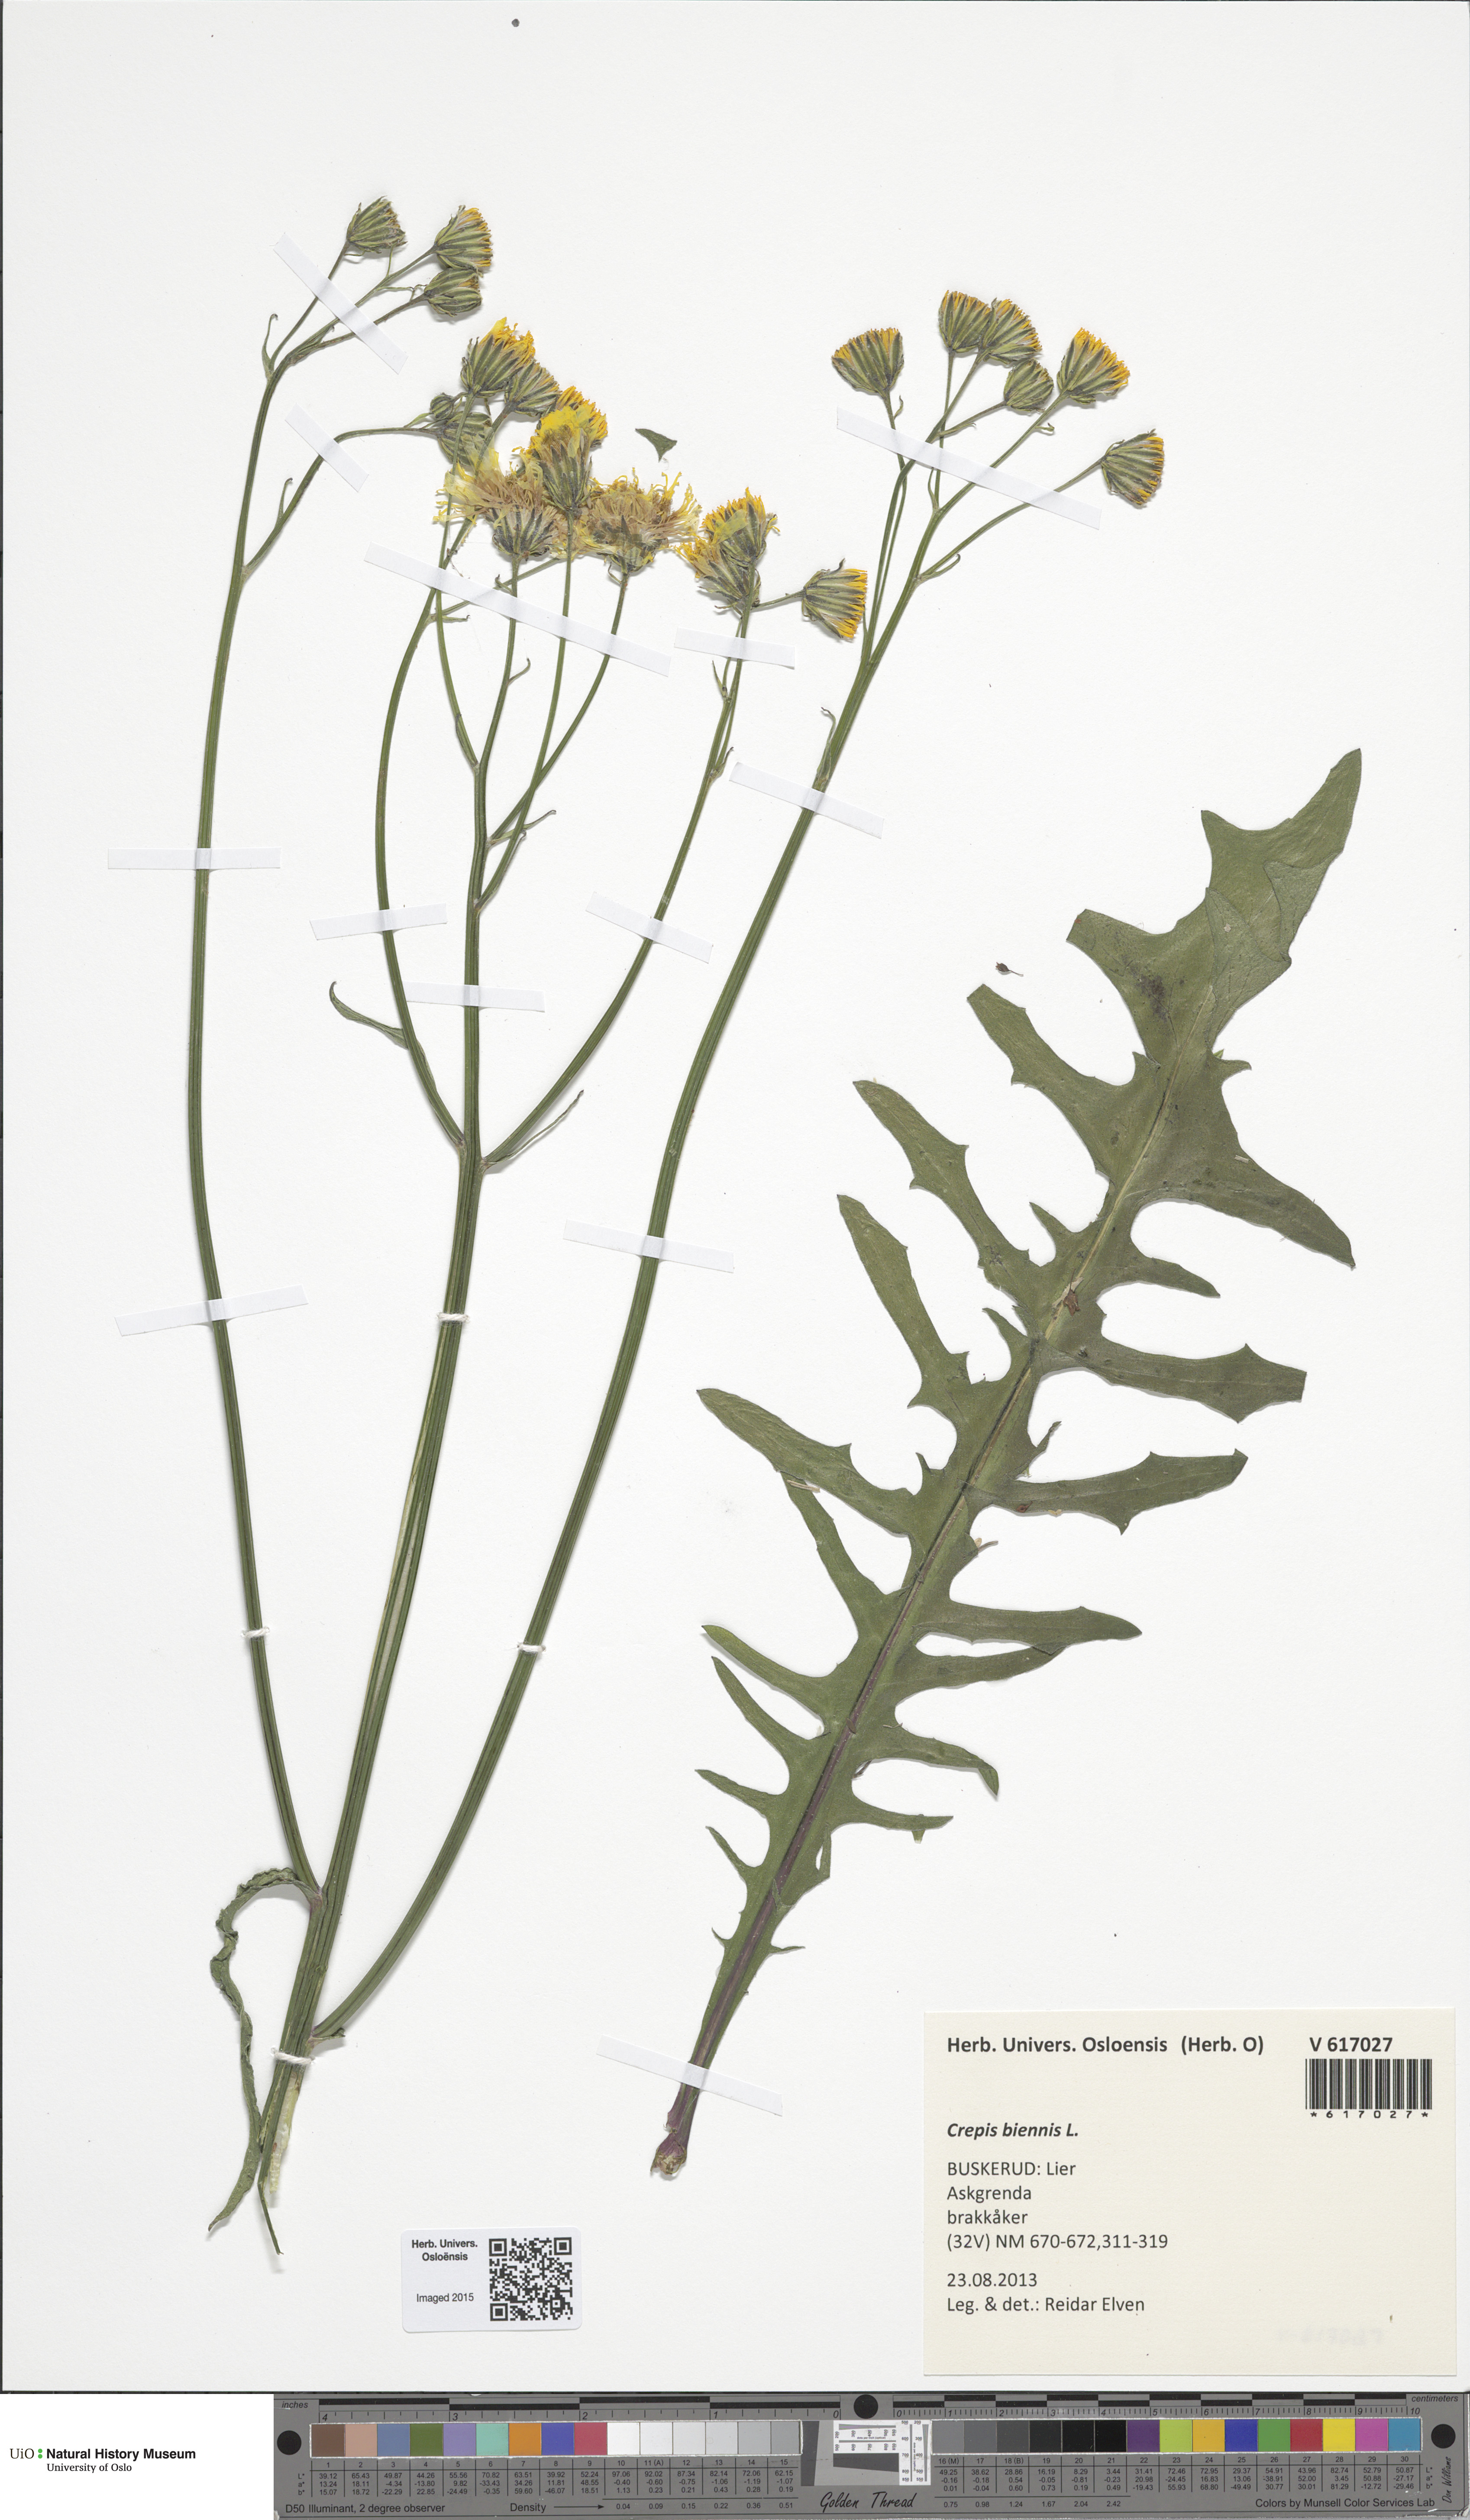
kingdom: Plantae
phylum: Tracheophyta
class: Magnoliopsida
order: Asterales
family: Asteraceae
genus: Crepis
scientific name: Crepis biennis
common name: Rough hawk's-beard
